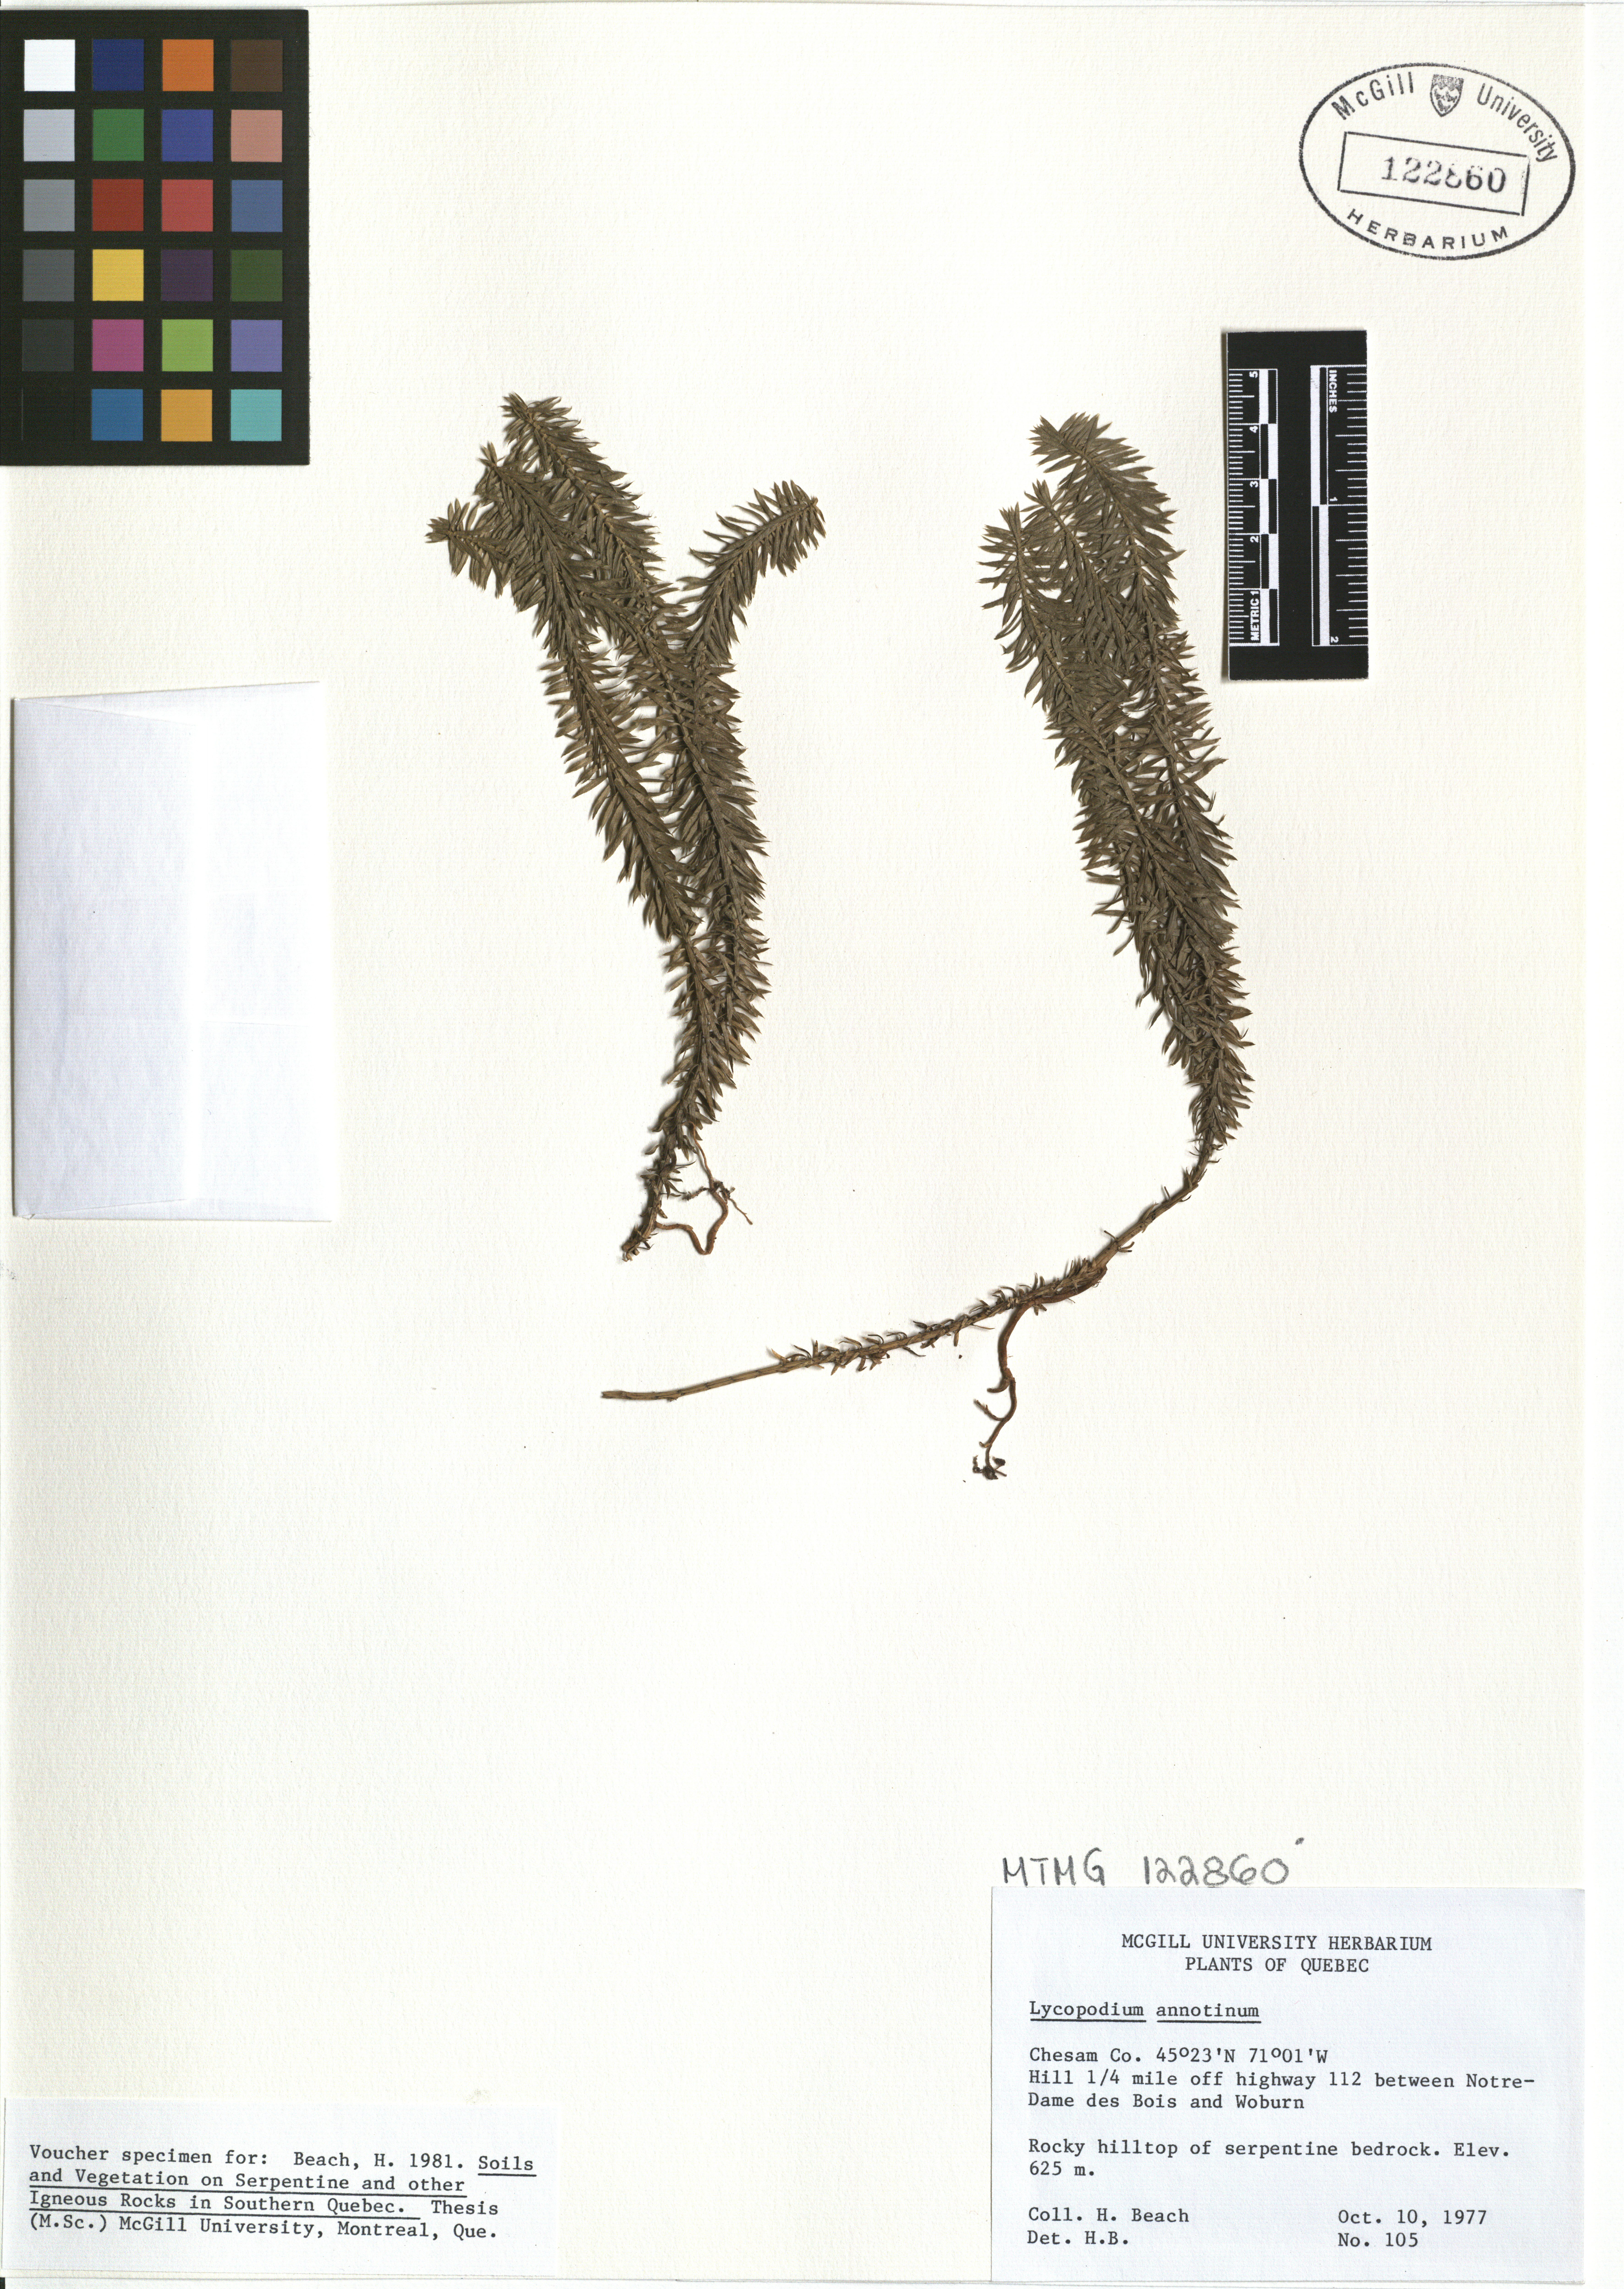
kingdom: Plantae
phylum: Tracheophyta
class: Lycopodiopsida
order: Lycopodiales
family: Lycopodiaceae
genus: Spinulum
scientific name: Spinulum annotinum
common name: Interrupted club-moss
